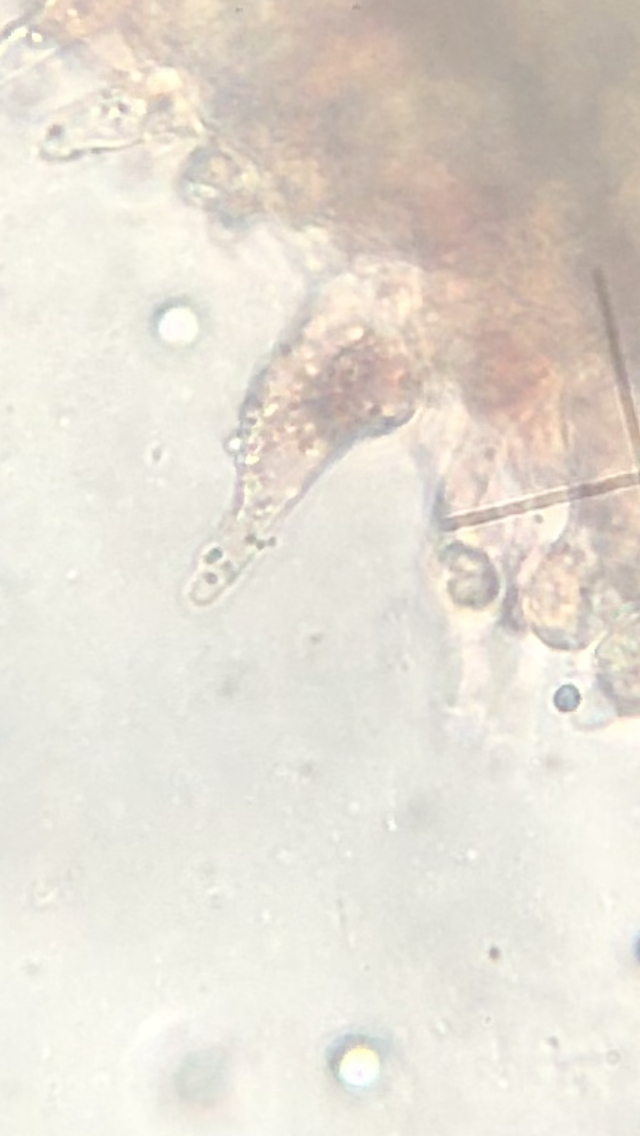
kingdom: Fungi
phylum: Basidiomycota
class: Agaricomycetes
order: Agaricales
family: Mycenaceae
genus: Mycena
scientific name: Mycena rubromarginata
